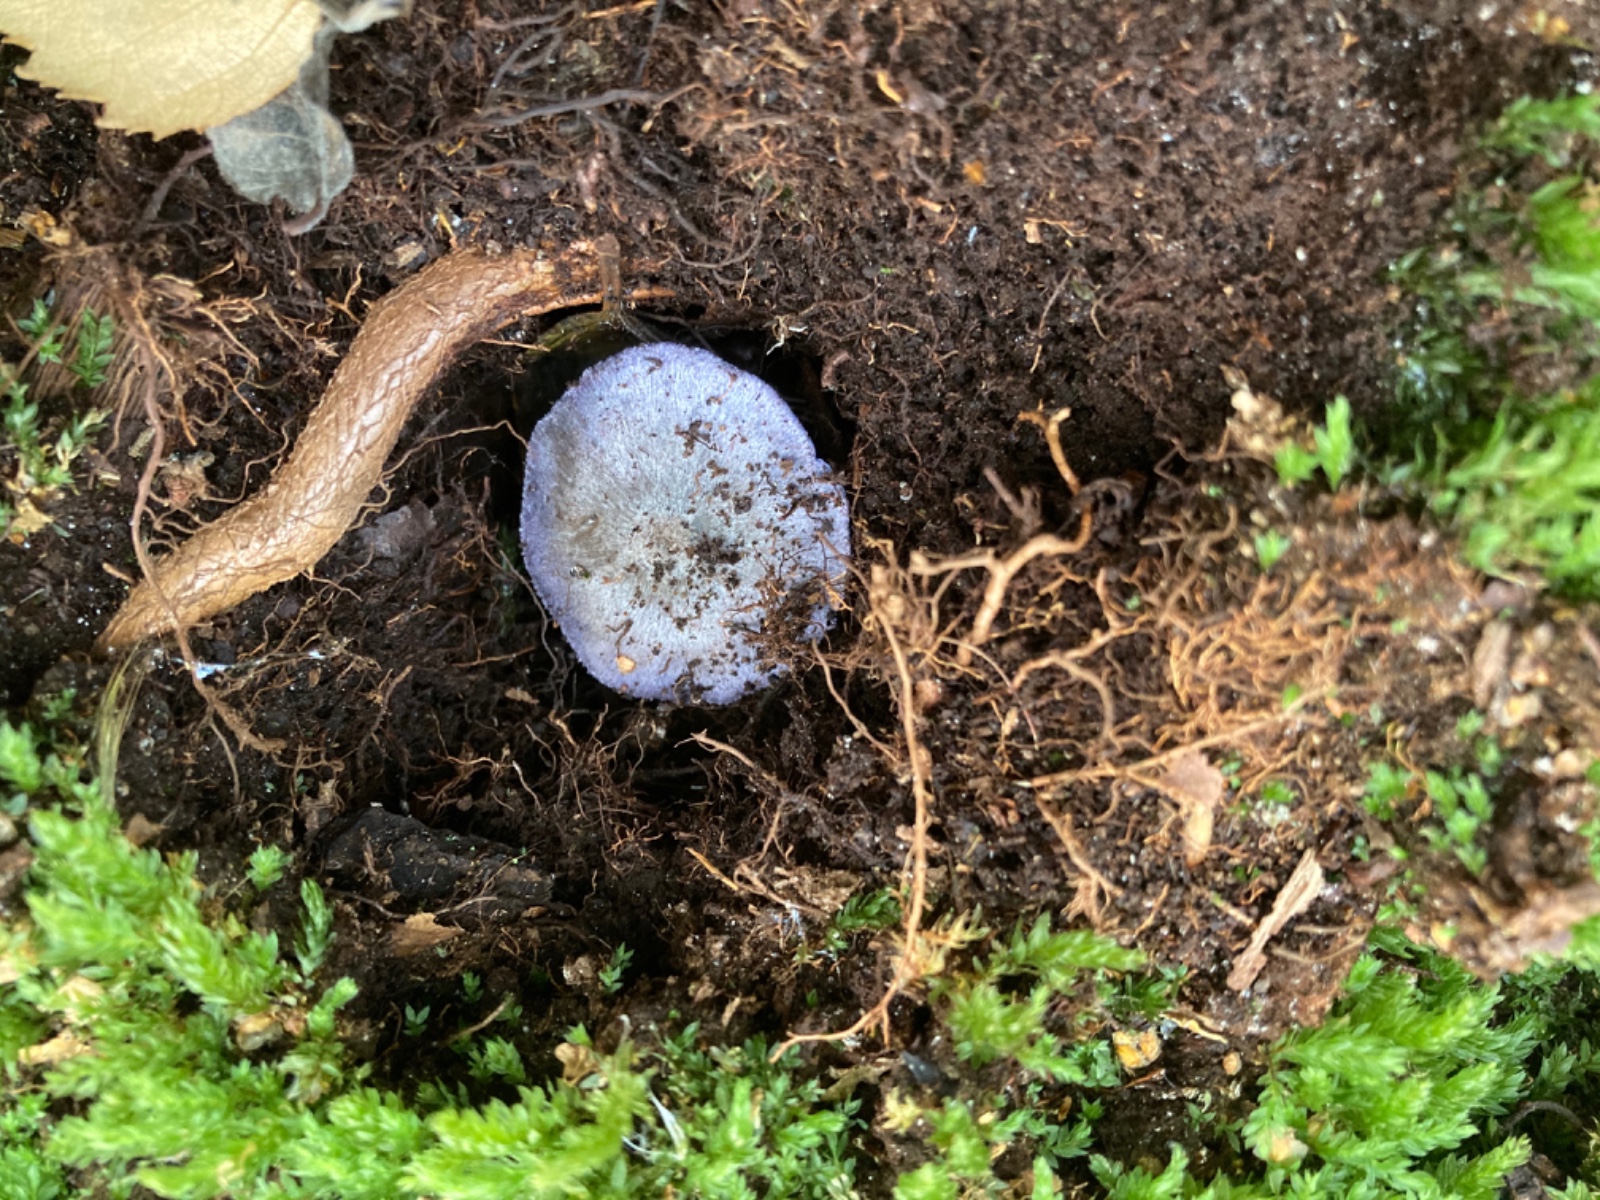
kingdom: Fungi
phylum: Basidiomycota
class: Agaricomycetes
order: Agaricales
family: Entolomataceae
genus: Entoloma
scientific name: Entoloma euchroum
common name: smuk rødblad
